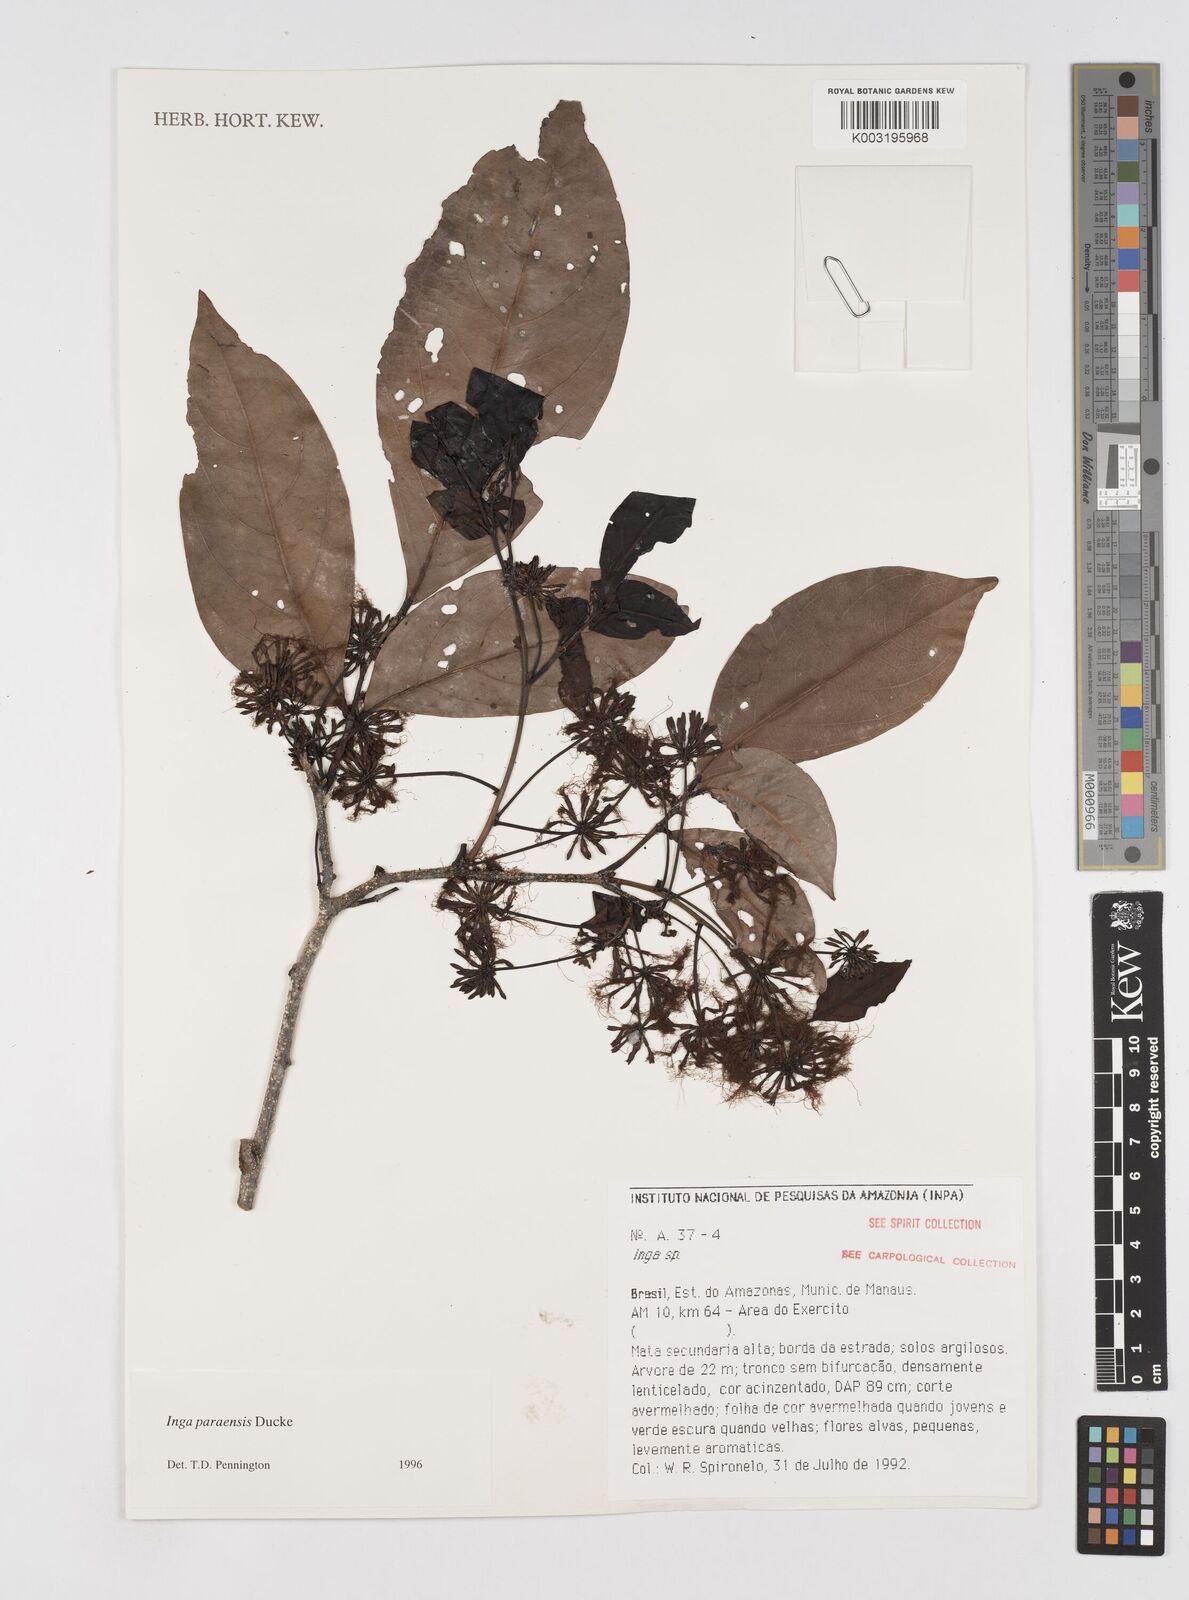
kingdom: Plantae
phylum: Tracheophyta
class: Magnoliopsida
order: Fabales
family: Fabaceae
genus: Inga
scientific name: Inga paraensis
